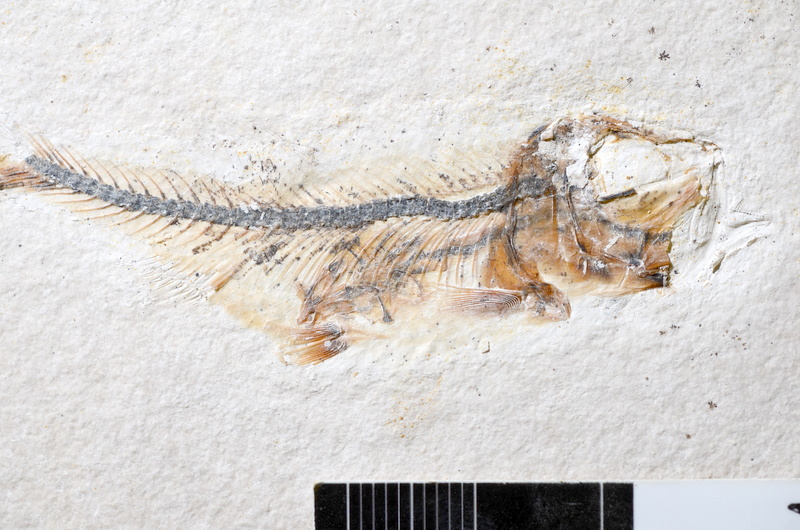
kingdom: Animalia
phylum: Chordata
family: Ascalaboidae
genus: Ebertichthys
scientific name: Ebertichthys ettlingensis
